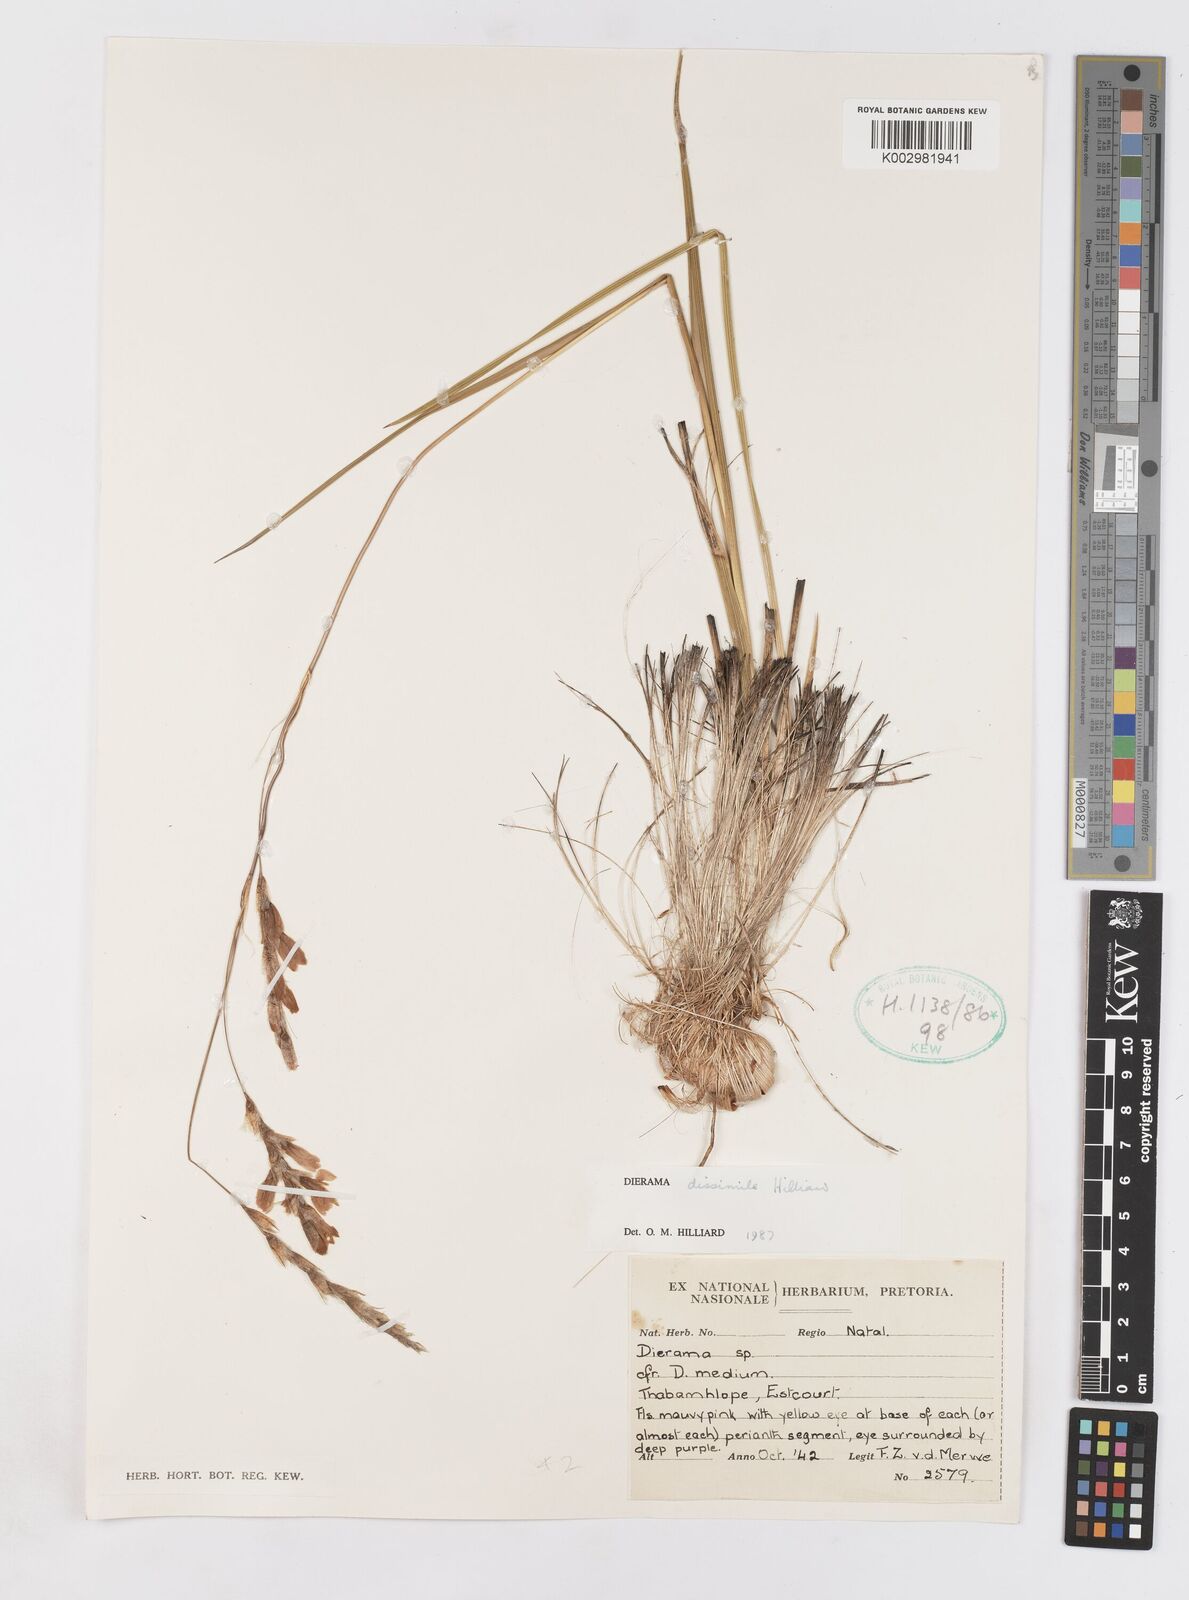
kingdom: Plantae
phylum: Tracheophyta
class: Liliopsida
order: Asparagales
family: Iridaceae
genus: Dierama
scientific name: Dierama dissimile
